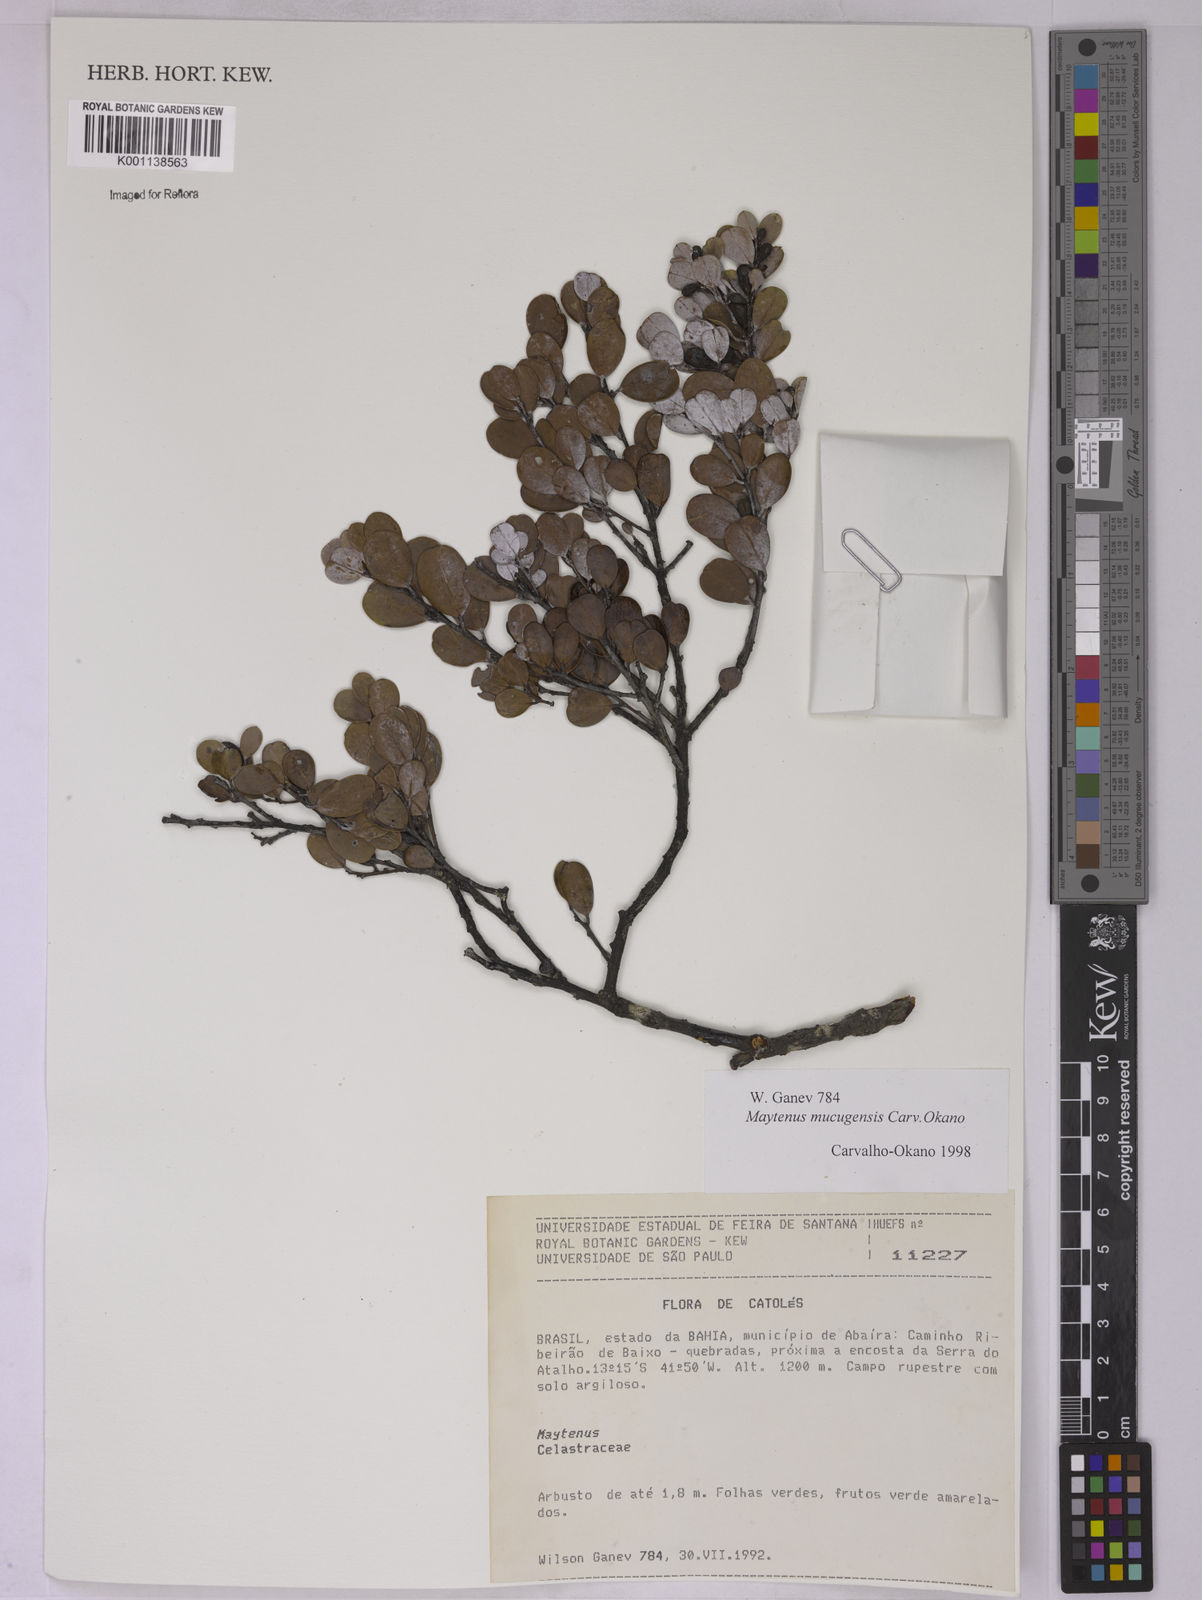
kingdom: Plantae
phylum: Tracheophyta
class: Magnoliopsida
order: Celastrales
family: Celastraceae
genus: Monteverdia
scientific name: Monteverdia mucugensis
